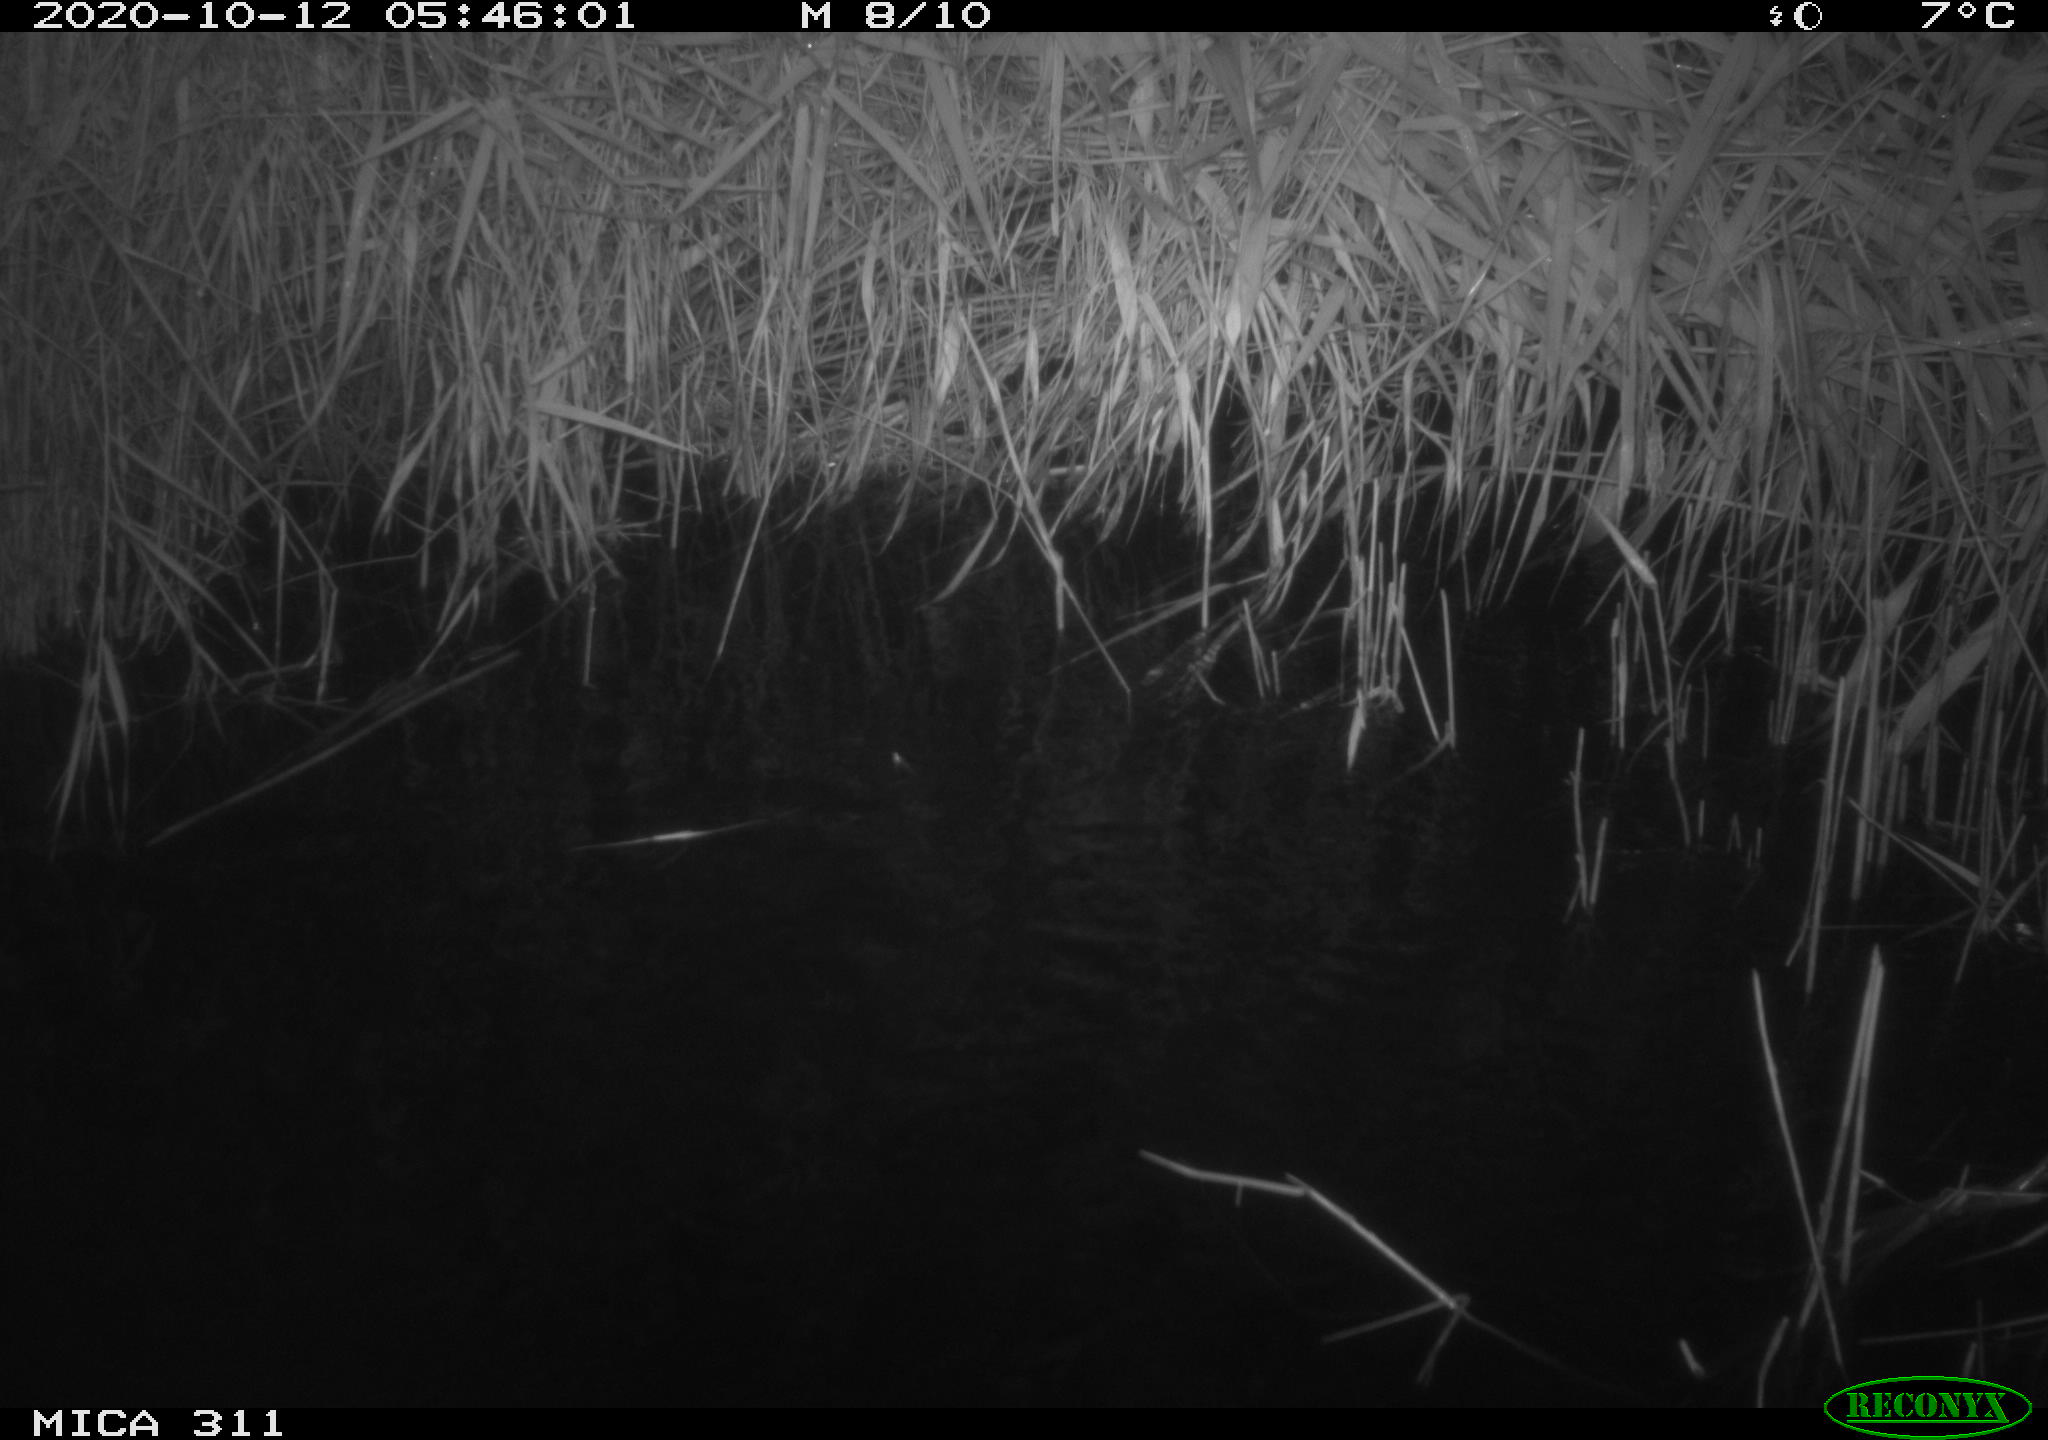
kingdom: Animalia
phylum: Chordata
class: Mammalia
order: Rodentia
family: Cricetidae
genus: Ondatra
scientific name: Ondatra zibethicus
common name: Muskrat
